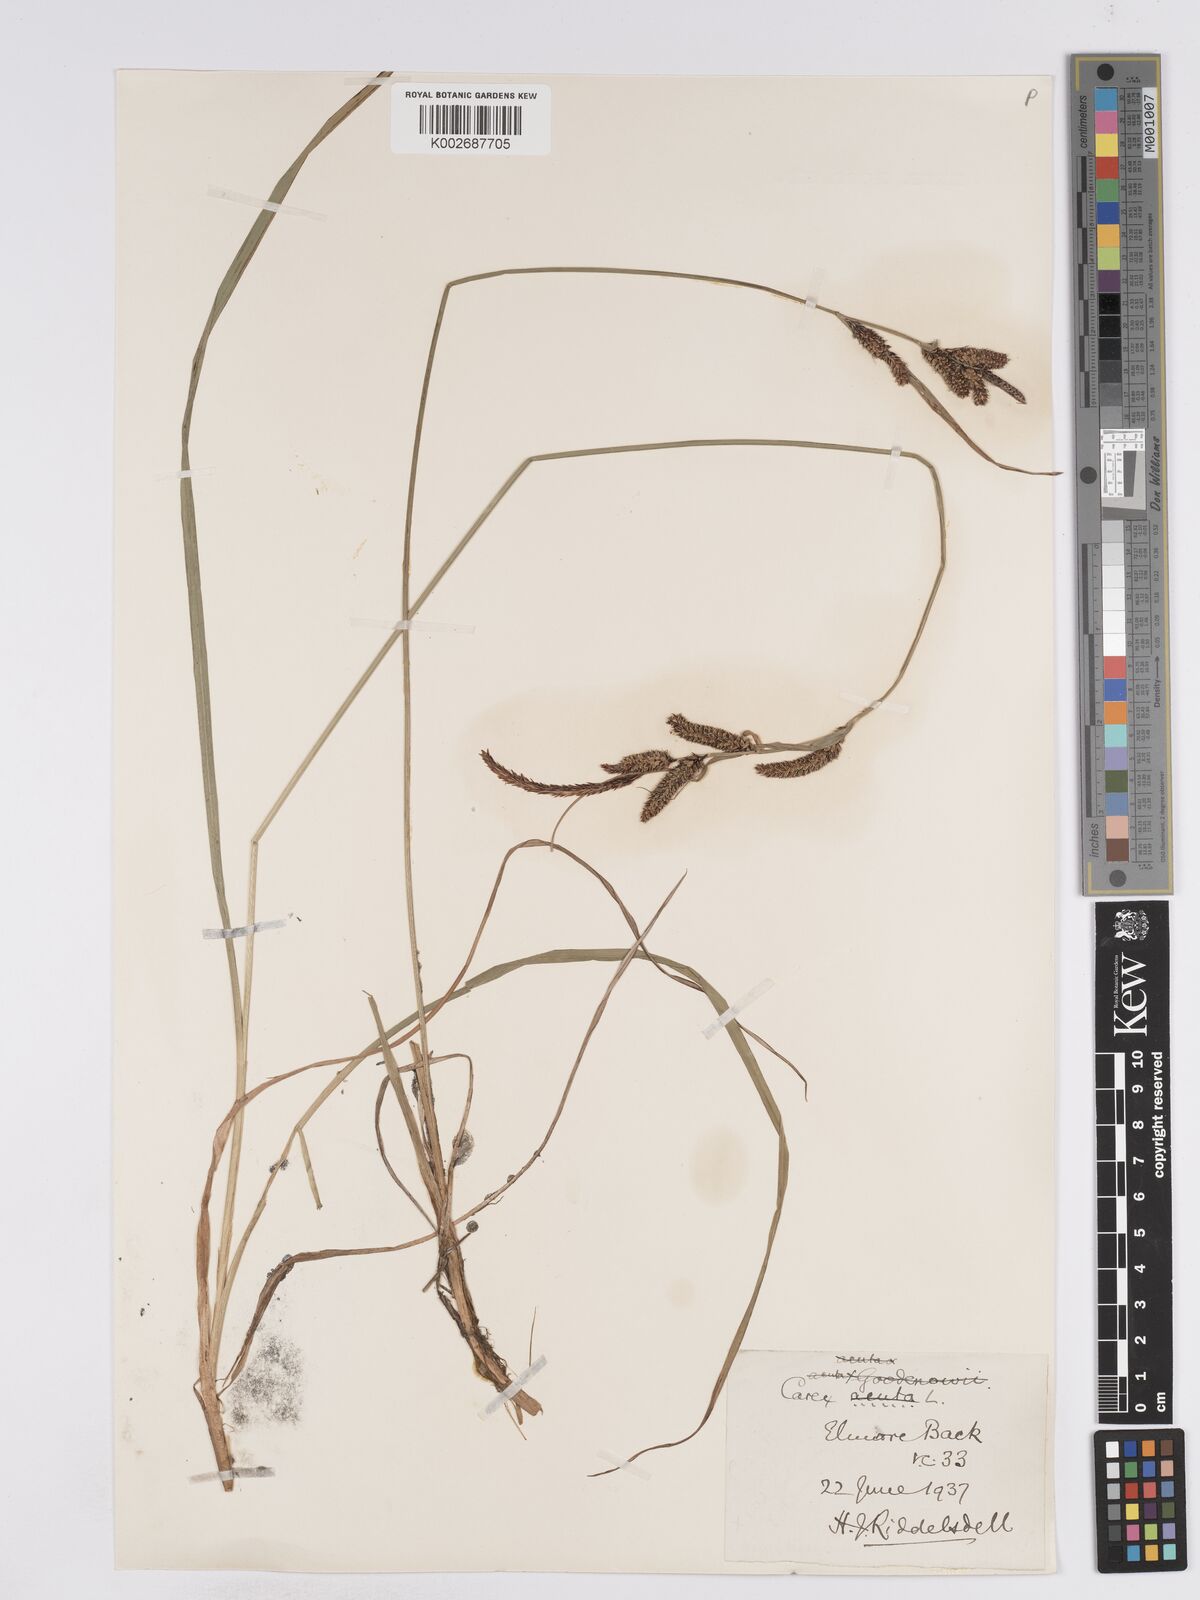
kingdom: Plantae
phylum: Tracheophyta
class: Liliopsida
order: Poales
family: Cyperaceae
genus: Carex
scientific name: Carex acuta
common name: Slender tufted-sedge
